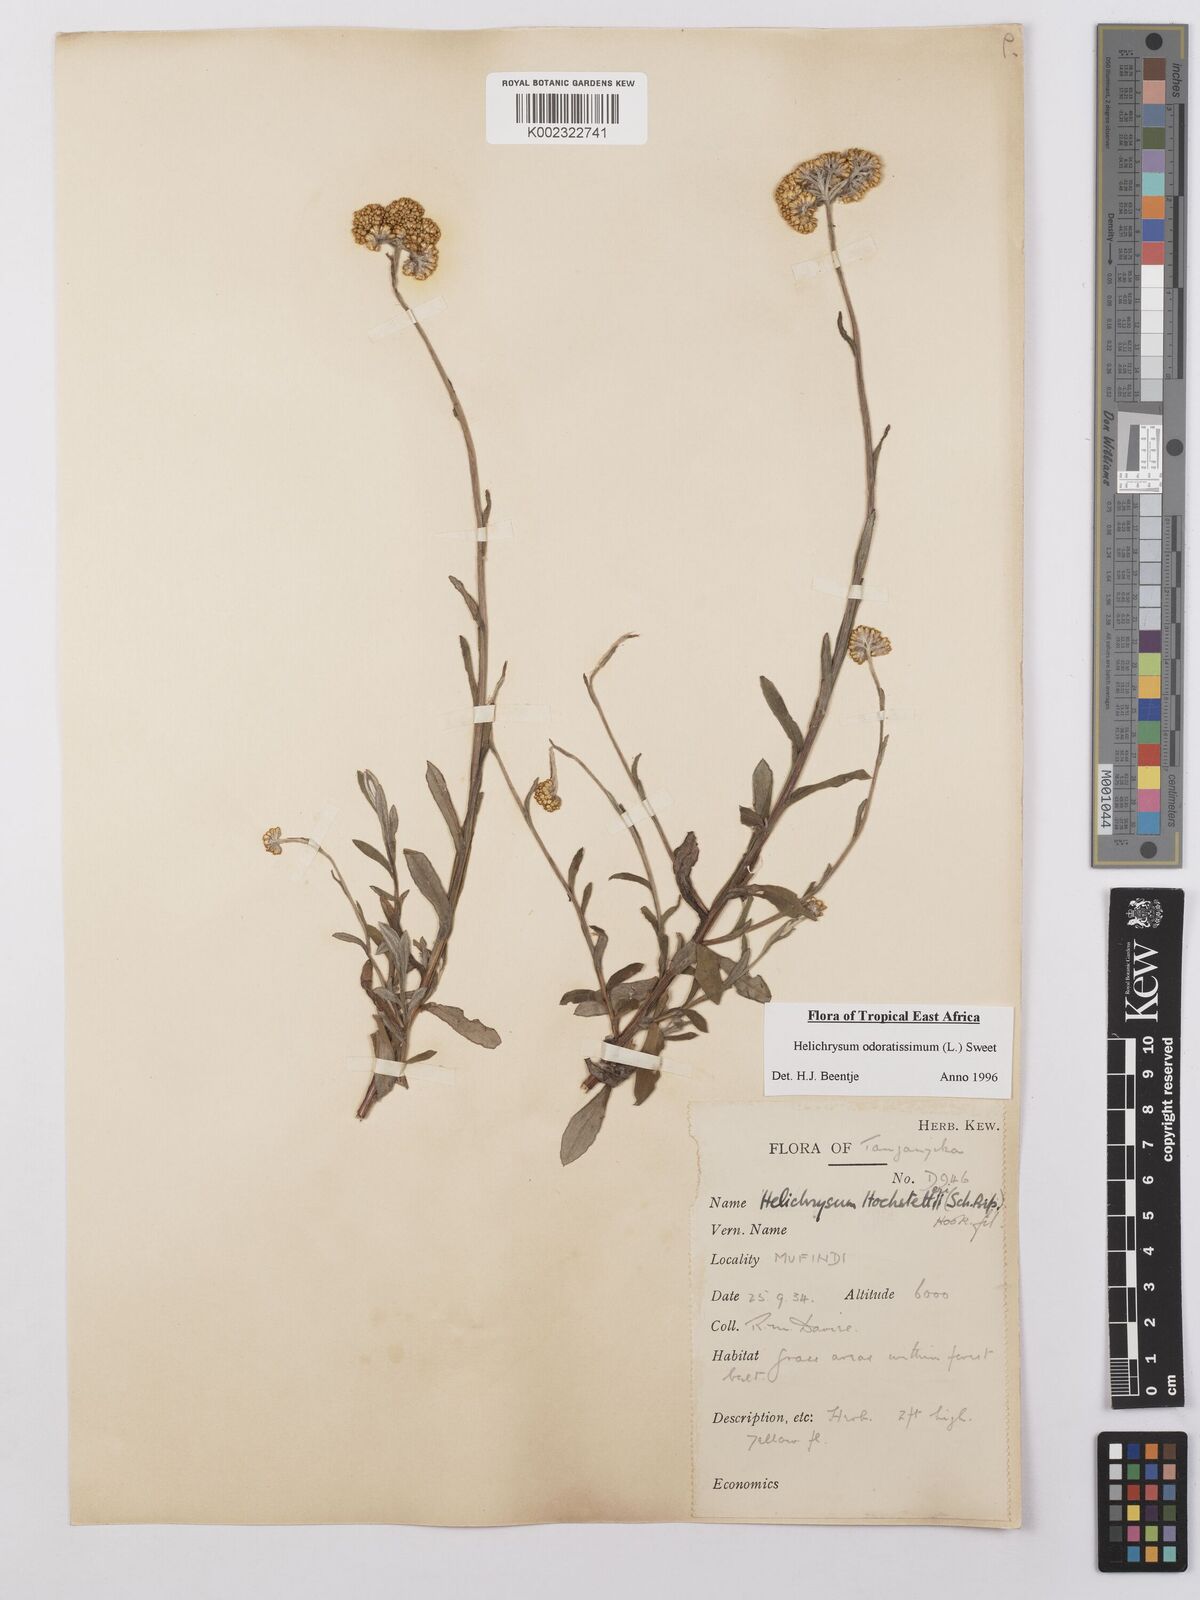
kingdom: Plantae
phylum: Tracheophyta
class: Magnoliopsida
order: Asterales
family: Asteraceae
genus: Helichrysum
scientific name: Helichrysum odoratissimum
